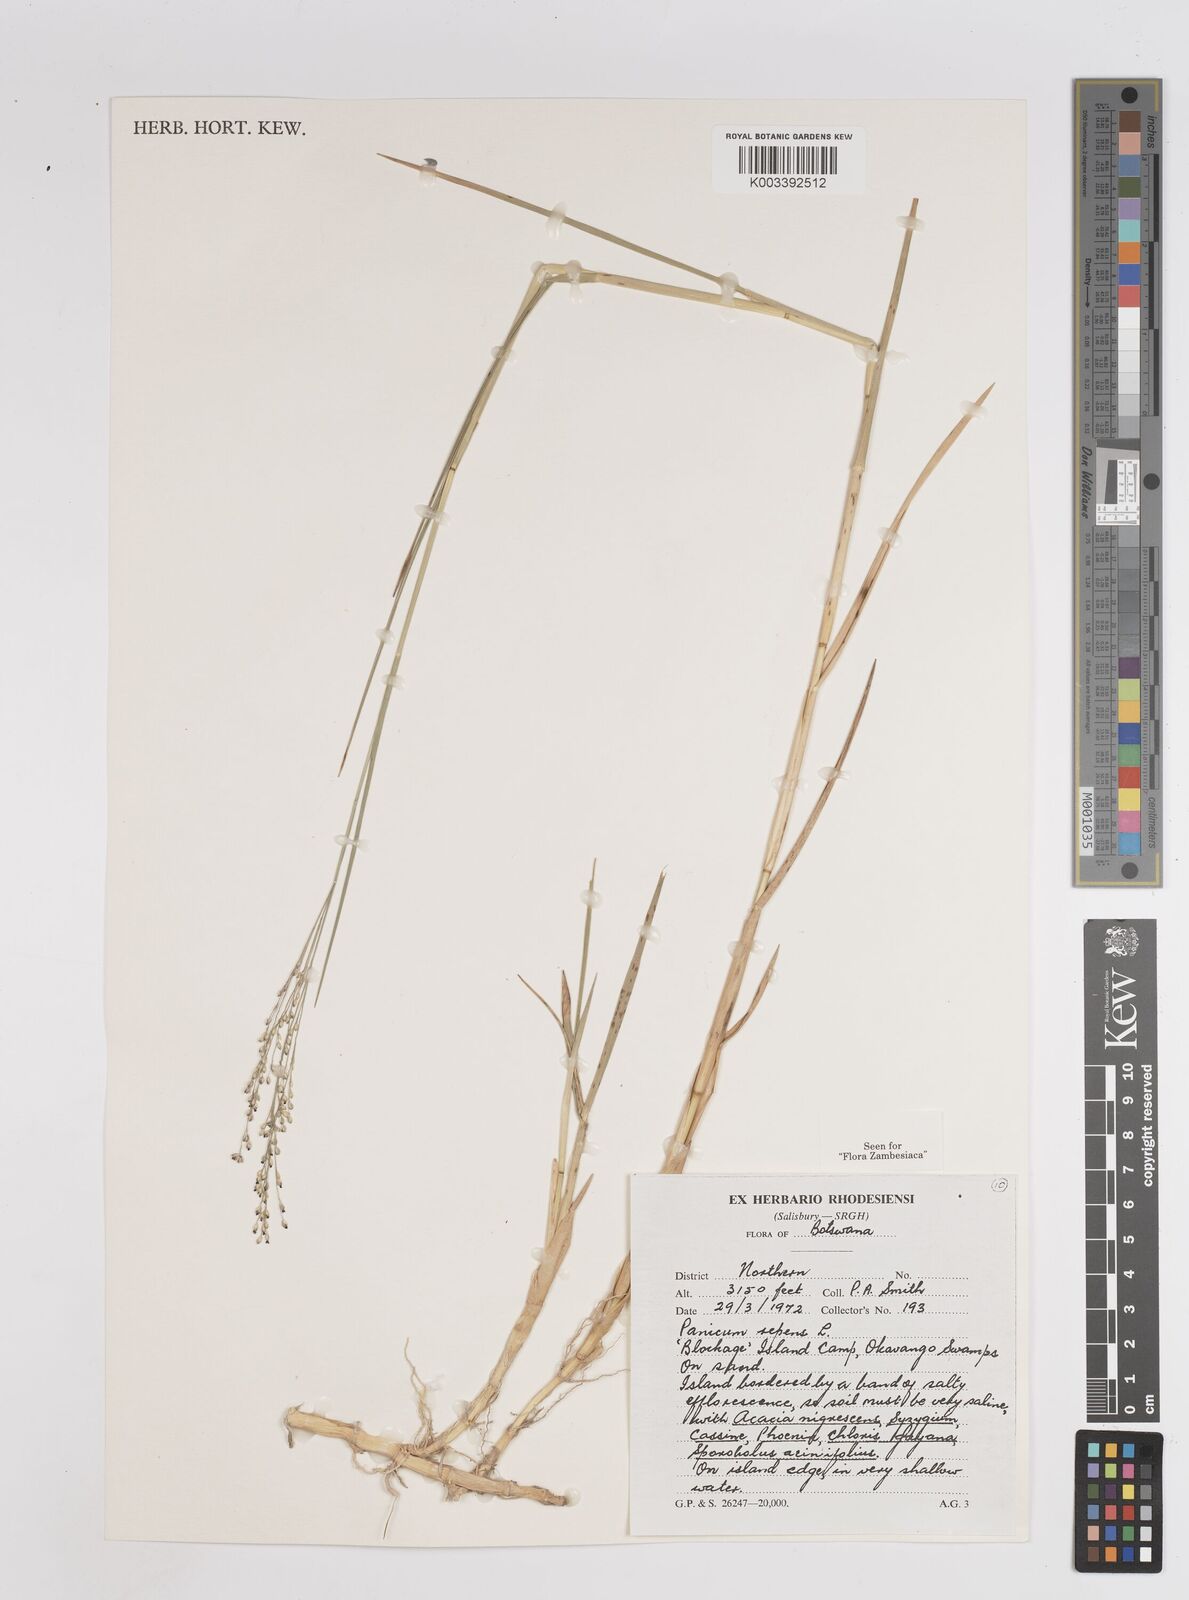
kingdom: Plantae
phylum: Tracheophyta
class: Liliopsida
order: Poales
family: Poaceae
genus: Panicum
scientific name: Panicum repens
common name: Torpedo grass
